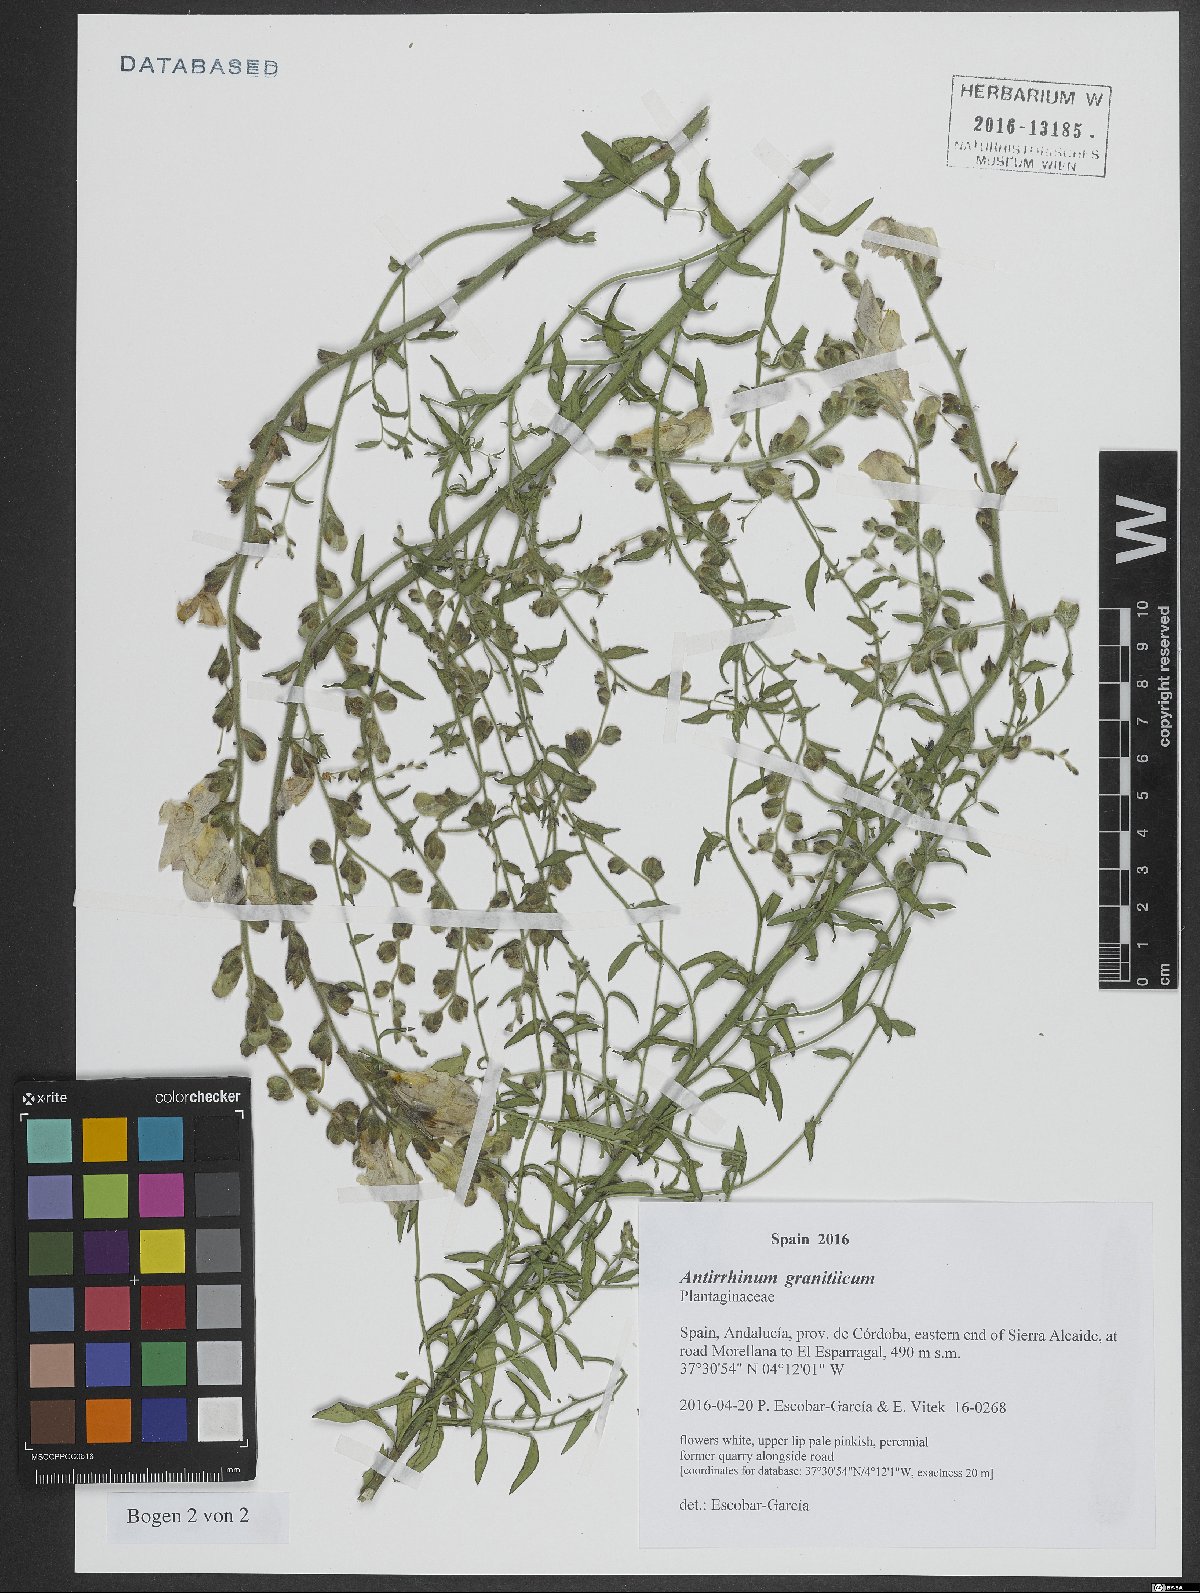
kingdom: Plantae
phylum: Tracheophyta
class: Magnoliopsida
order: Lamiales
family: Plantaginaceae
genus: Antirrhinum
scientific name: Antirrhinum graniticum
